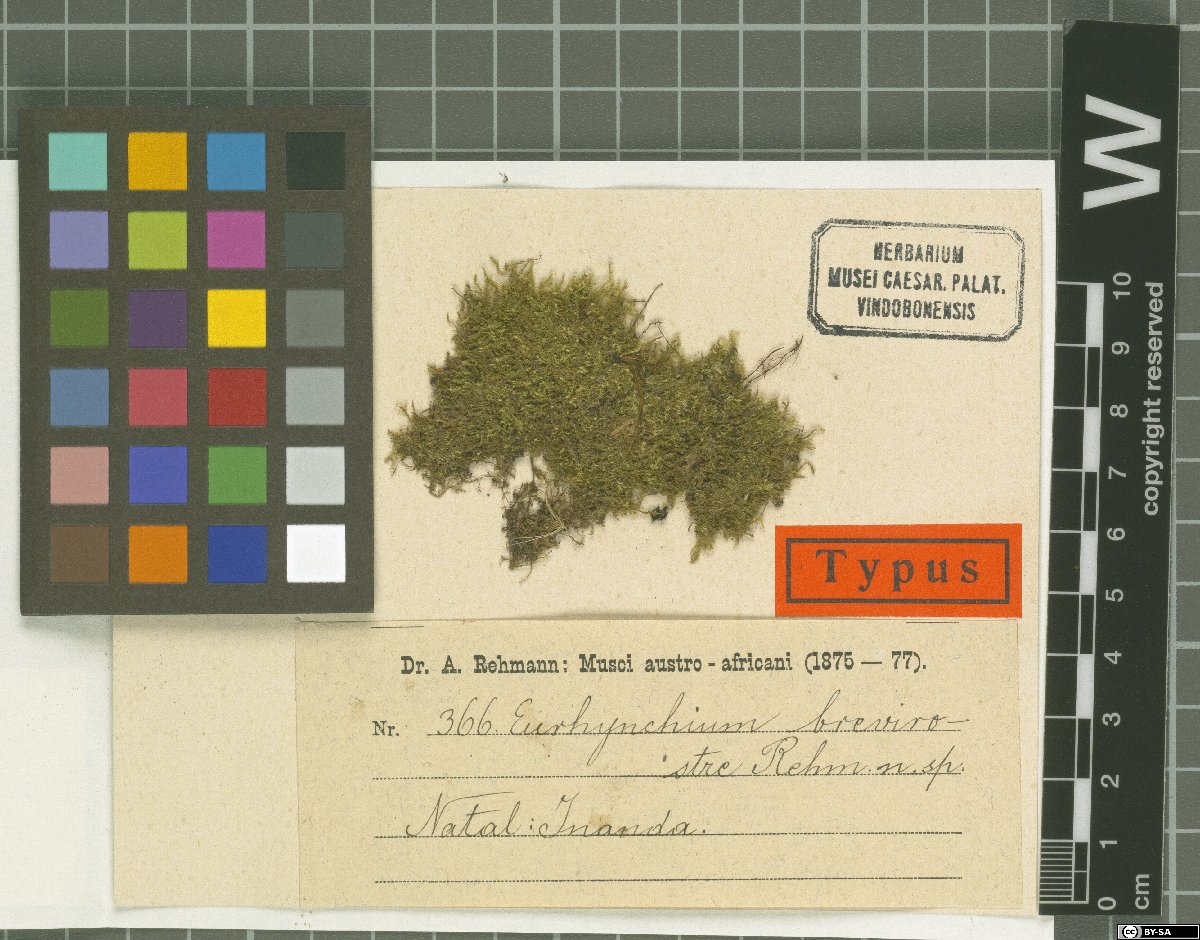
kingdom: Plantae
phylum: Bryophyta
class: Bryopsida
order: Hypnales
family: Brachytheciaceae
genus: Eurhynchium
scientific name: Eurhynchium
